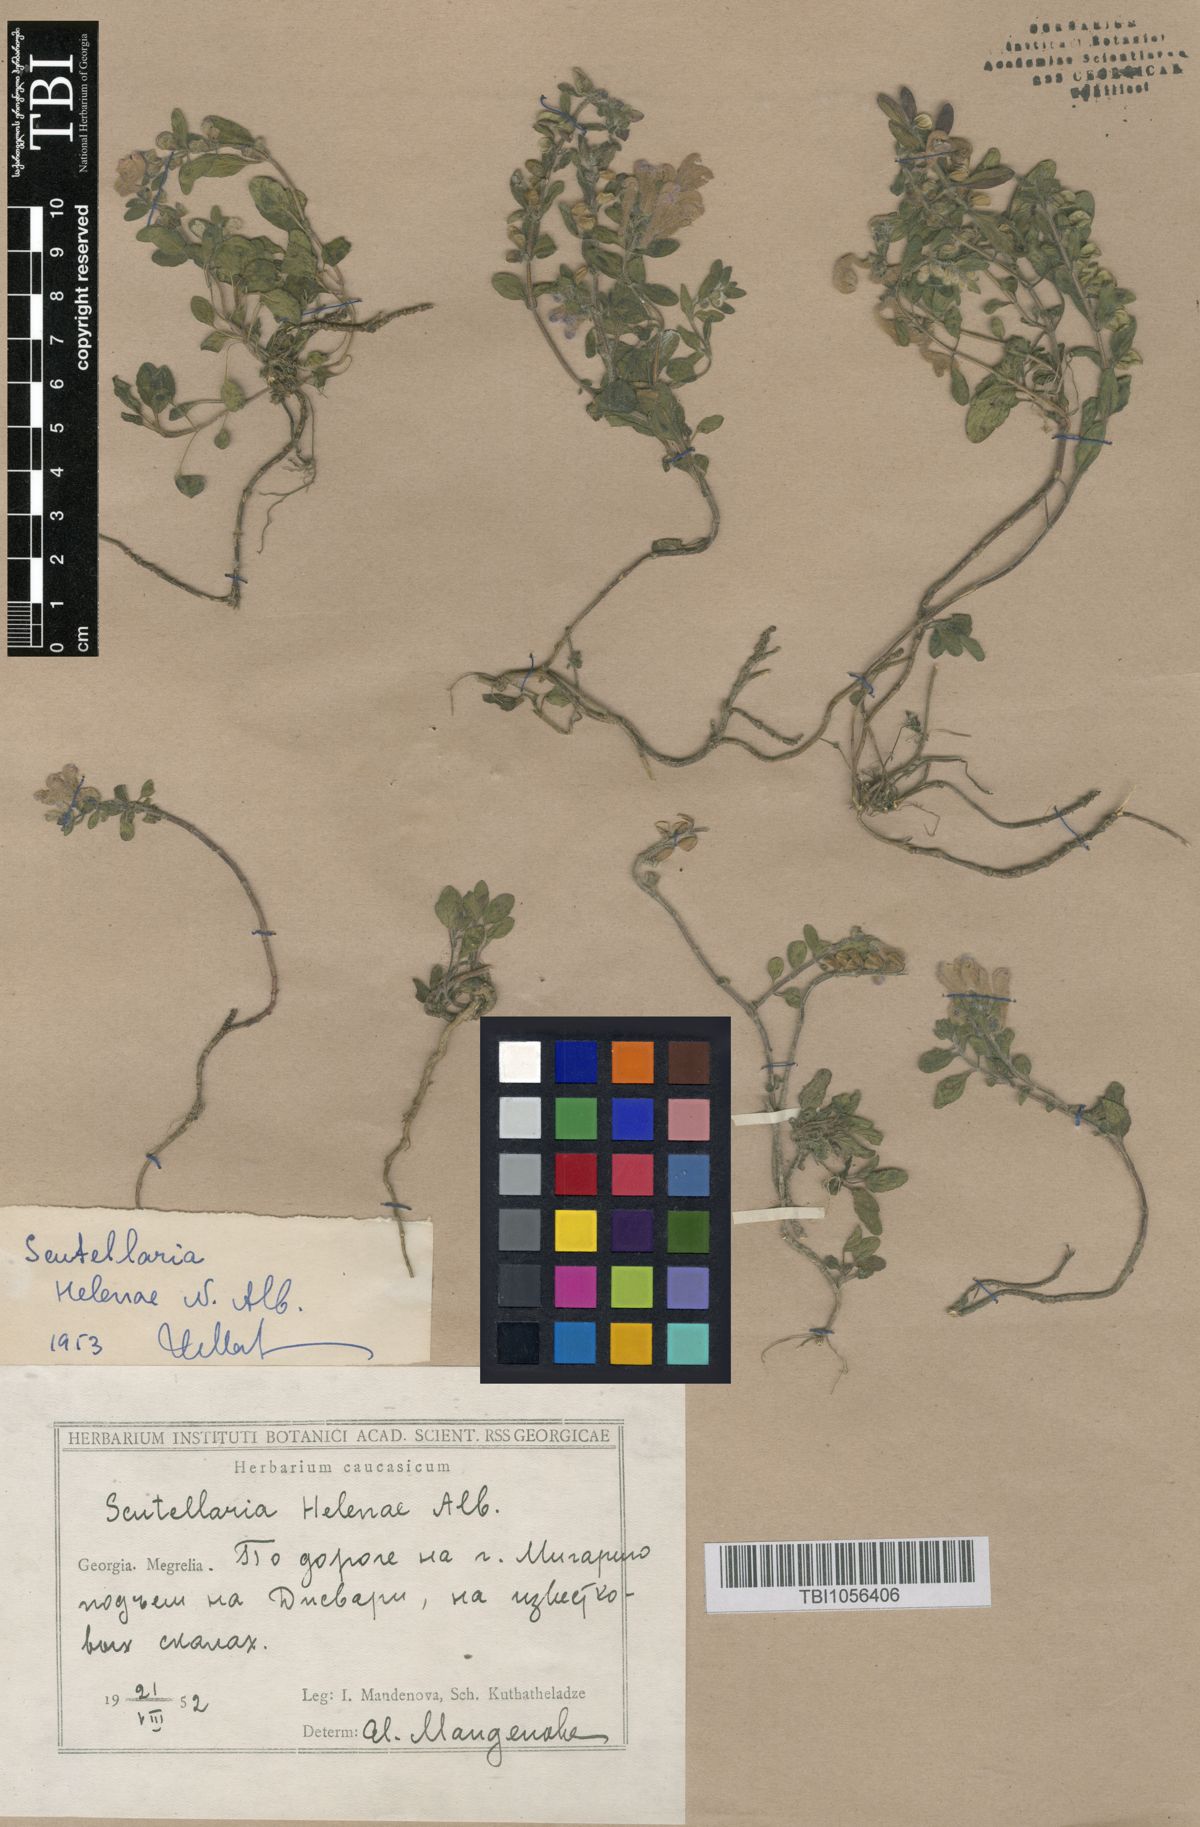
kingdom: Plantae
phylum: Tracheophyta
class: Magnoliopsida
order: Lamiales
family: Lamiaceae
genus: Scutellaria
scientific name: Scutellaria helenae
